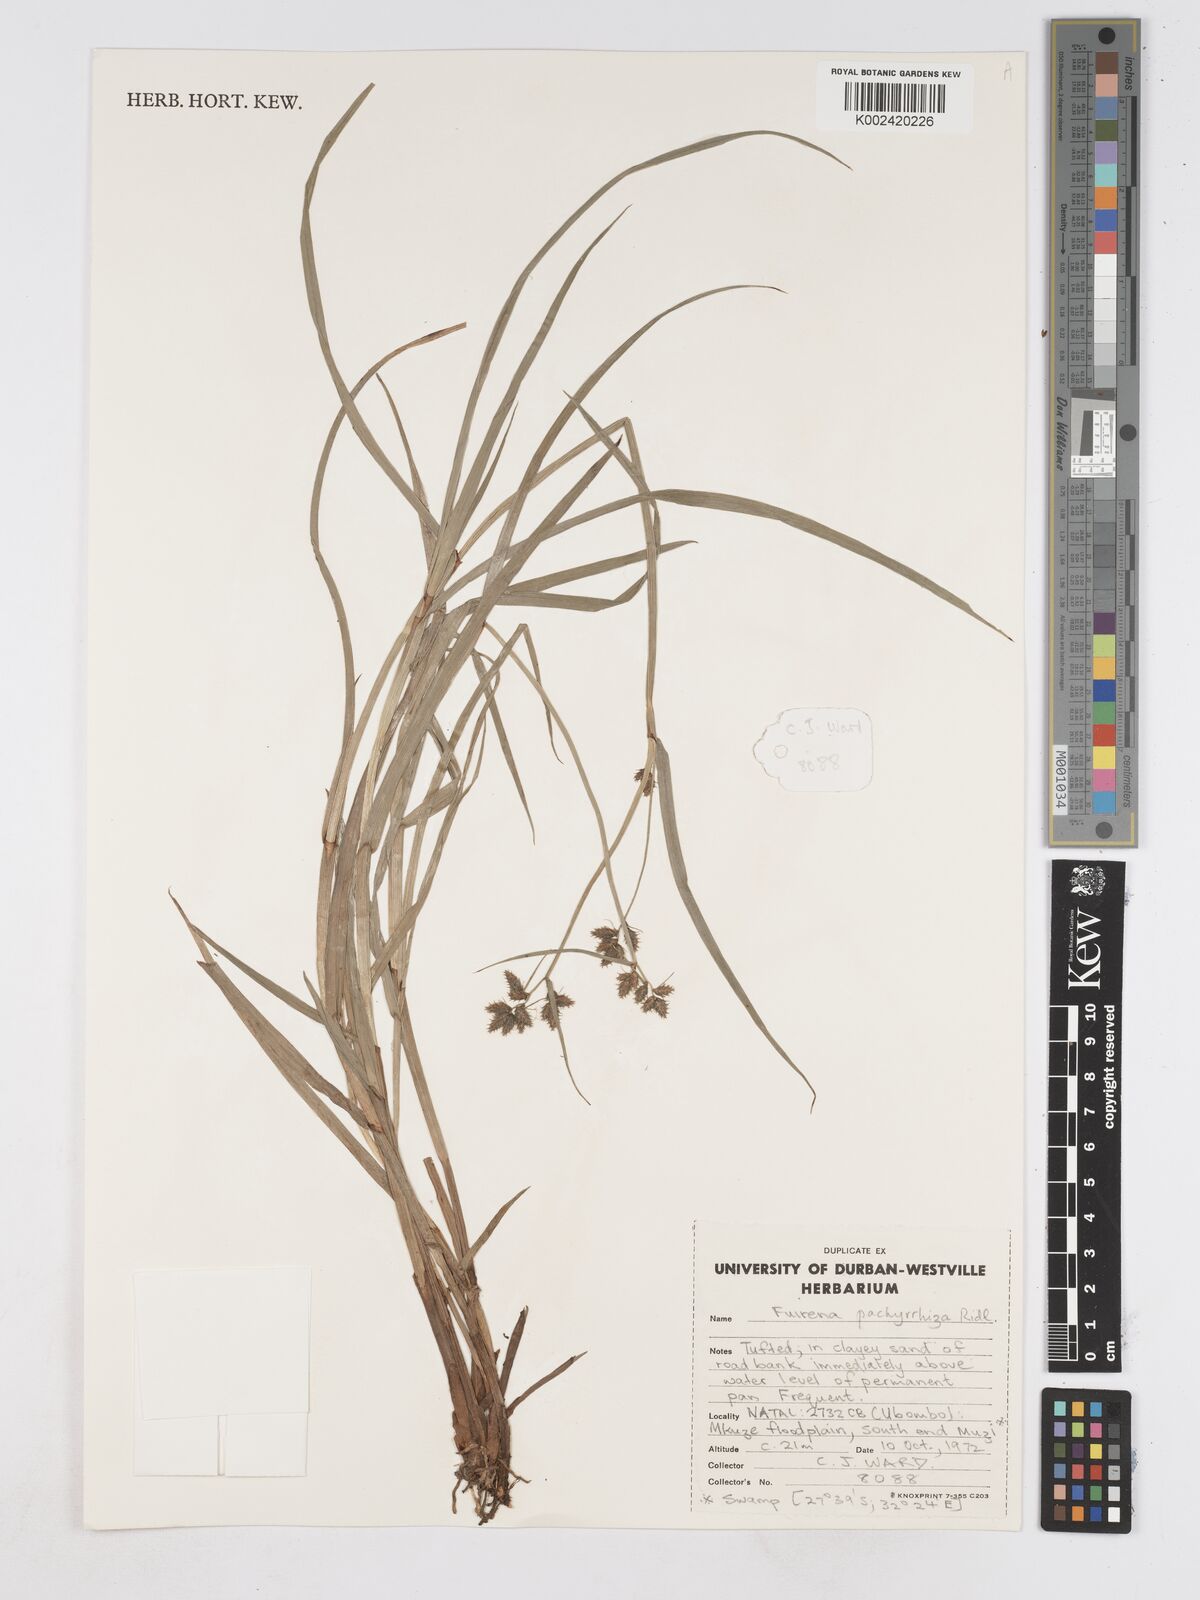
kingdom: Plantae
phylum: Tracheophyta
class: Liliopsida
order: Poales
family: Cyperaceae
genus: Fuirena
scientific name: Fuirena pachyrrhiza
